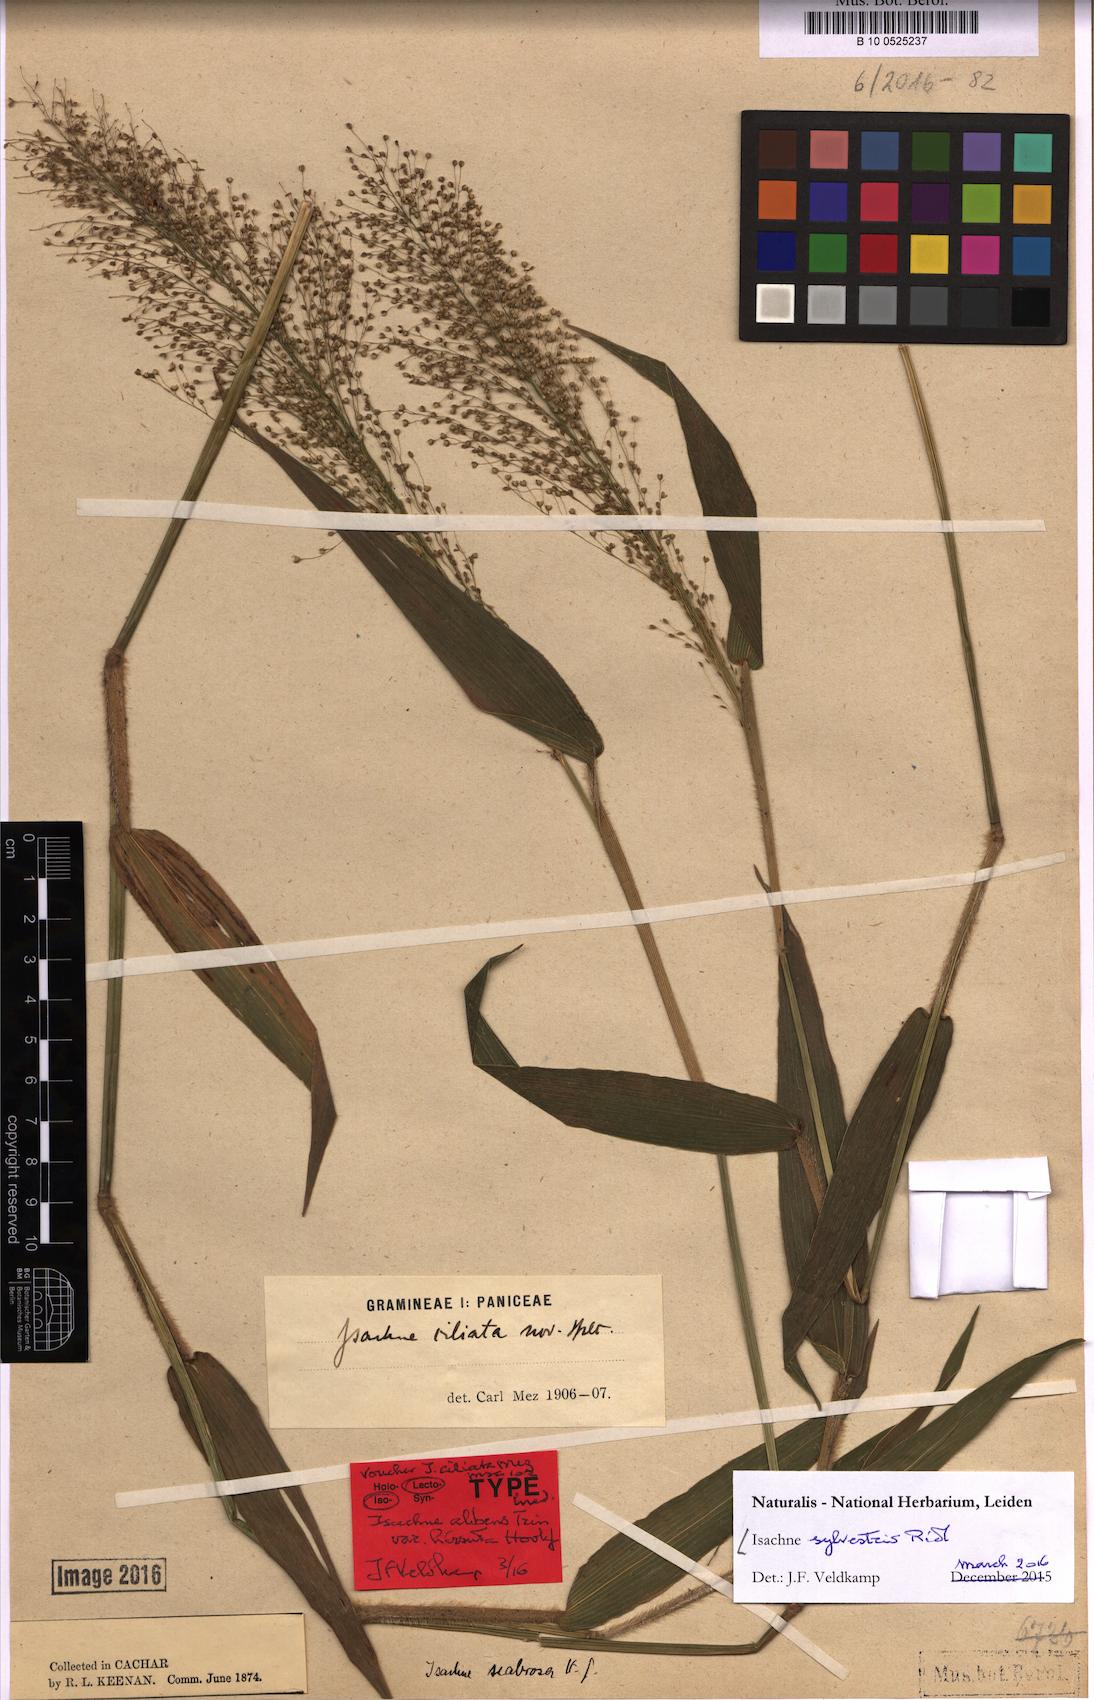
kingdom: Plantae
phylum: Tracheophyta
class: Liliopsida
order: Poales
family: Poaceae
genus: Isachne
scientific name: Isachne sylvestris
